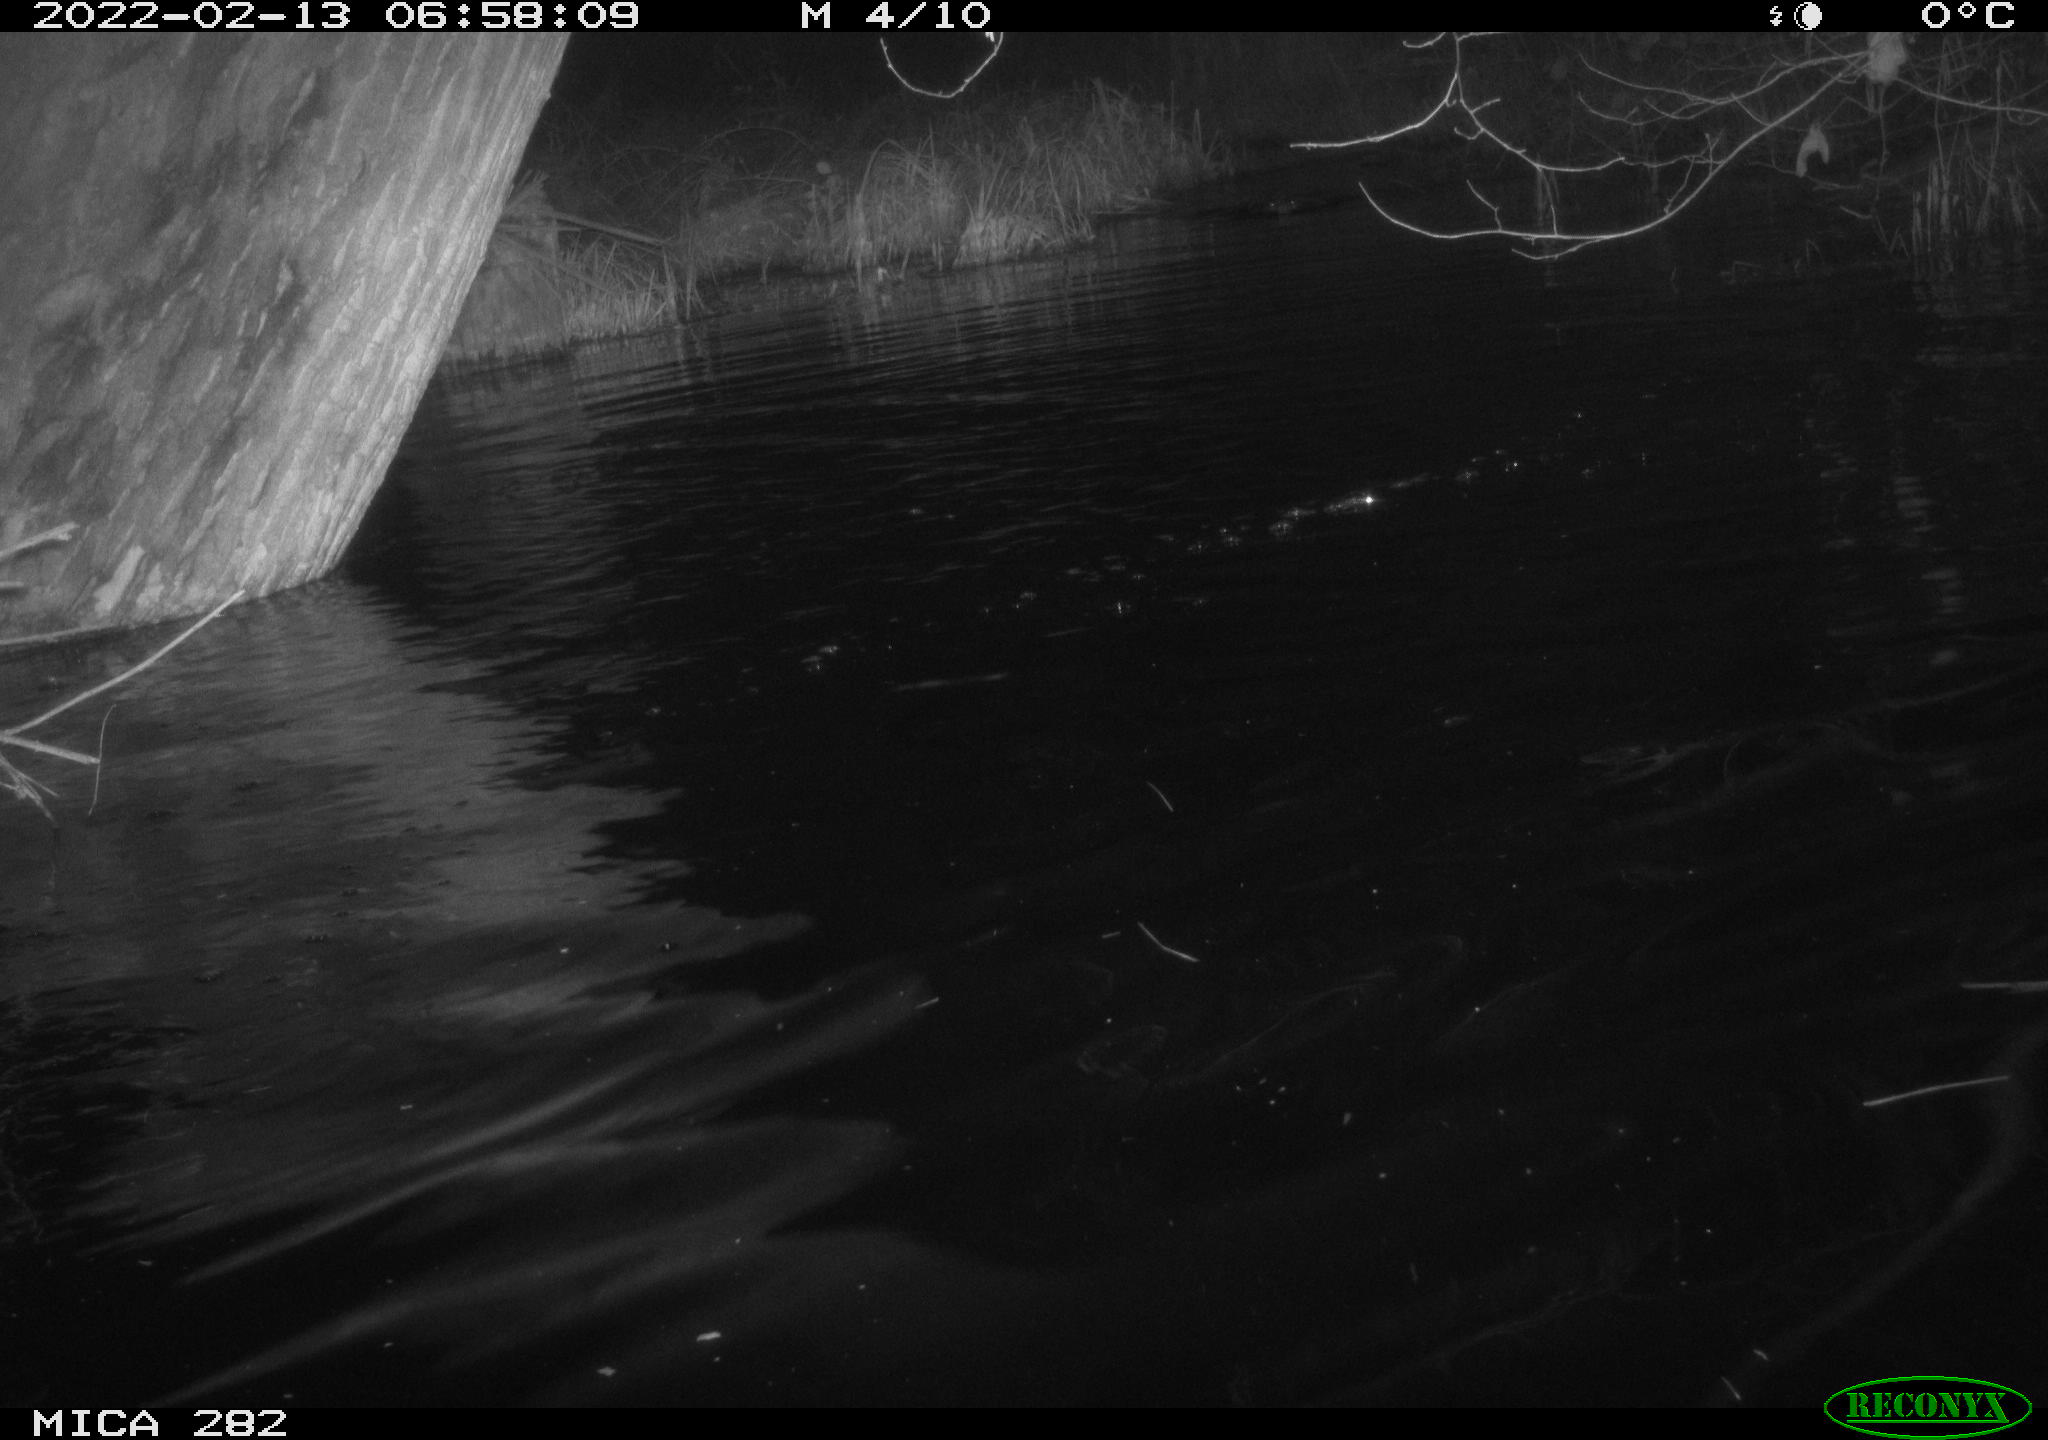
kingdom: Animalia
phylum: Chordata
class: Aves
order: Anseriformes
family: Anatidae
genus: Anas
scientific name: Anas platyrhynchos
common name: Mallard
